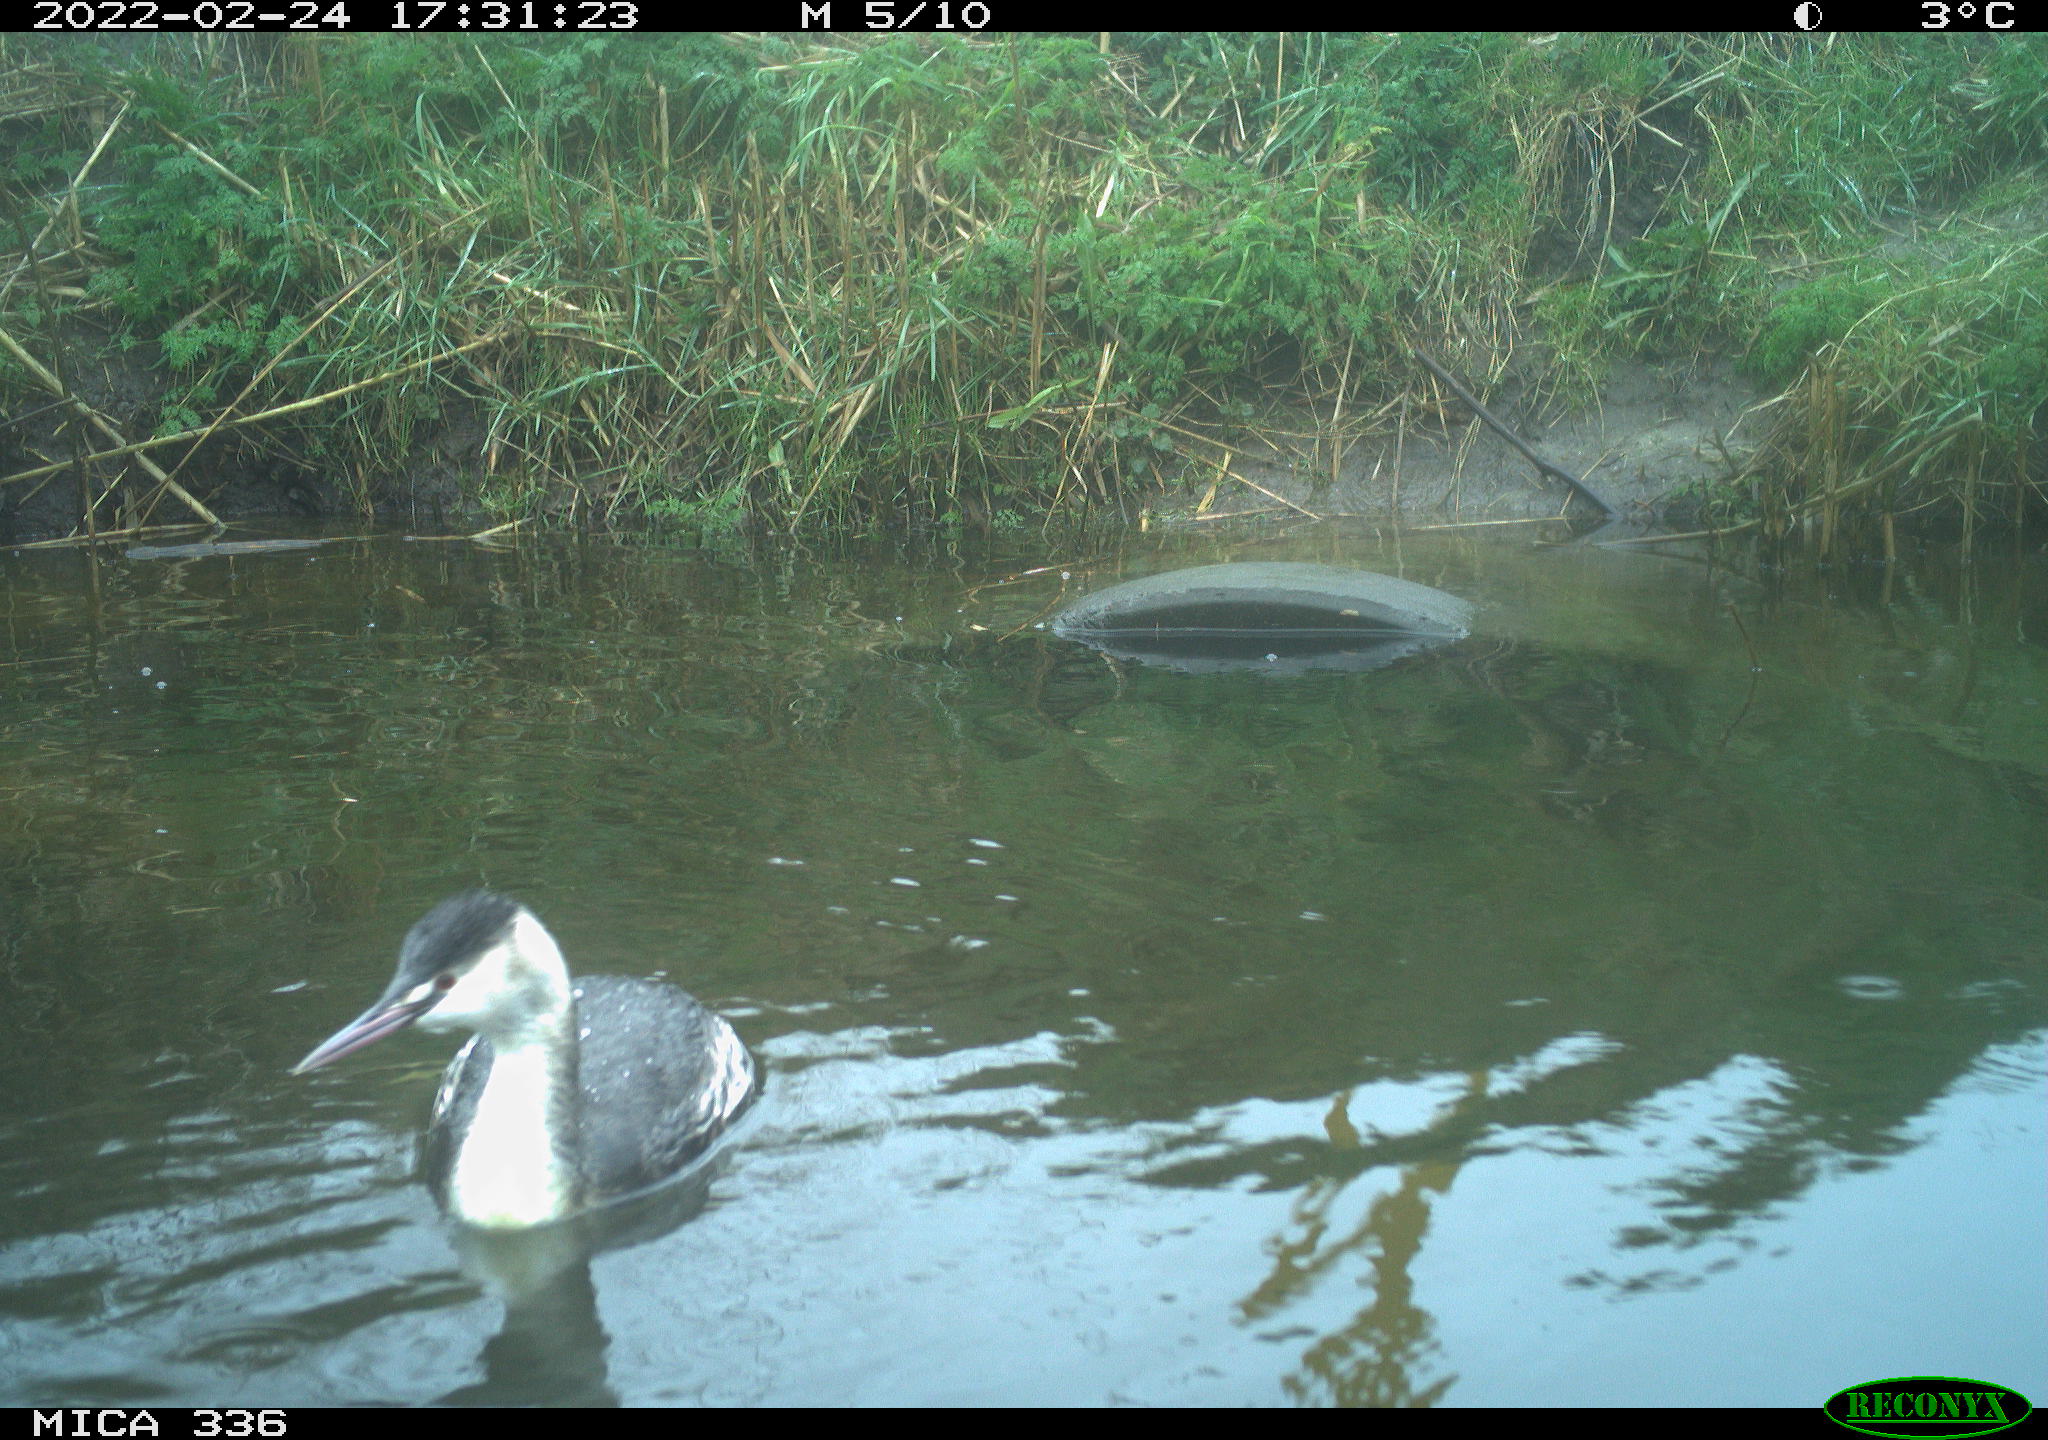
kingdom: Animalia
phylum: Chordata
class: Aves
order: Podicipediformes
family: Podicipedidae
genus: Podiceps
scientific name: Podiceps cristatus
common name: Great crested grebe
